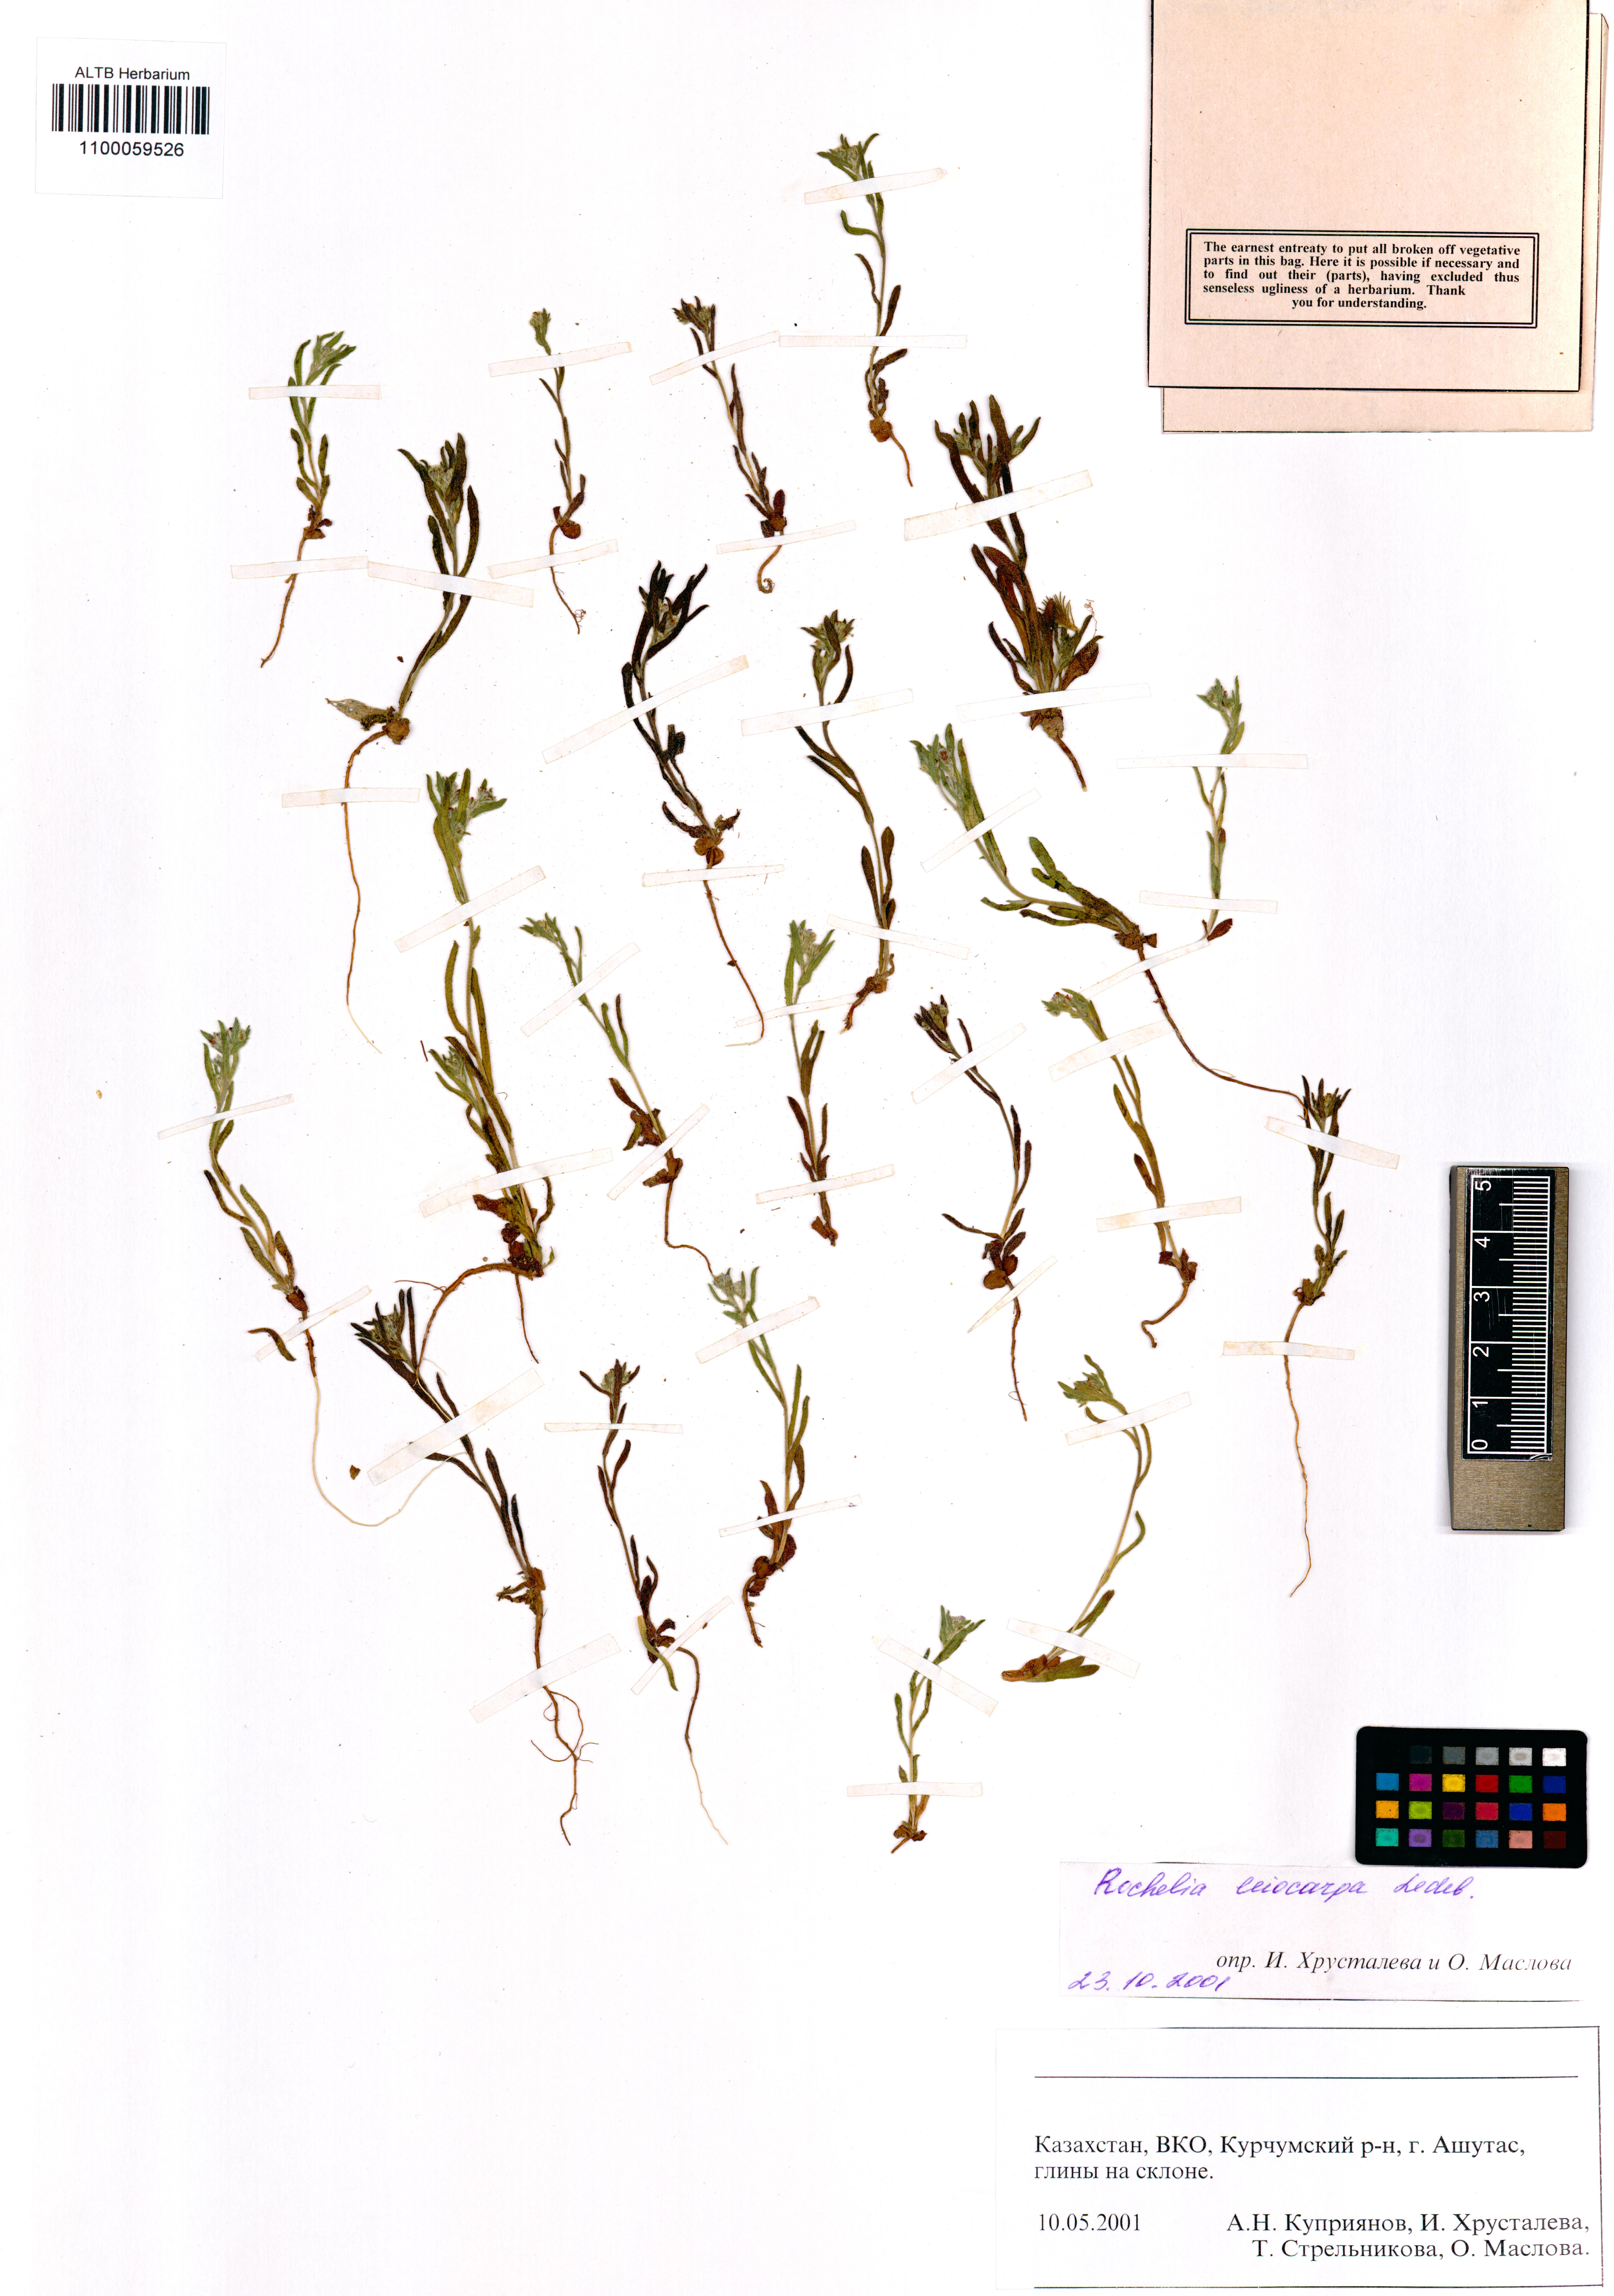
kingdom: Plantae
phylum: Tracheophyta
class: Magnoliopsida
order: Boraginales
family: Boraginaceae
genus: Rochelia
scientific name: Rochelia leiocarpa
